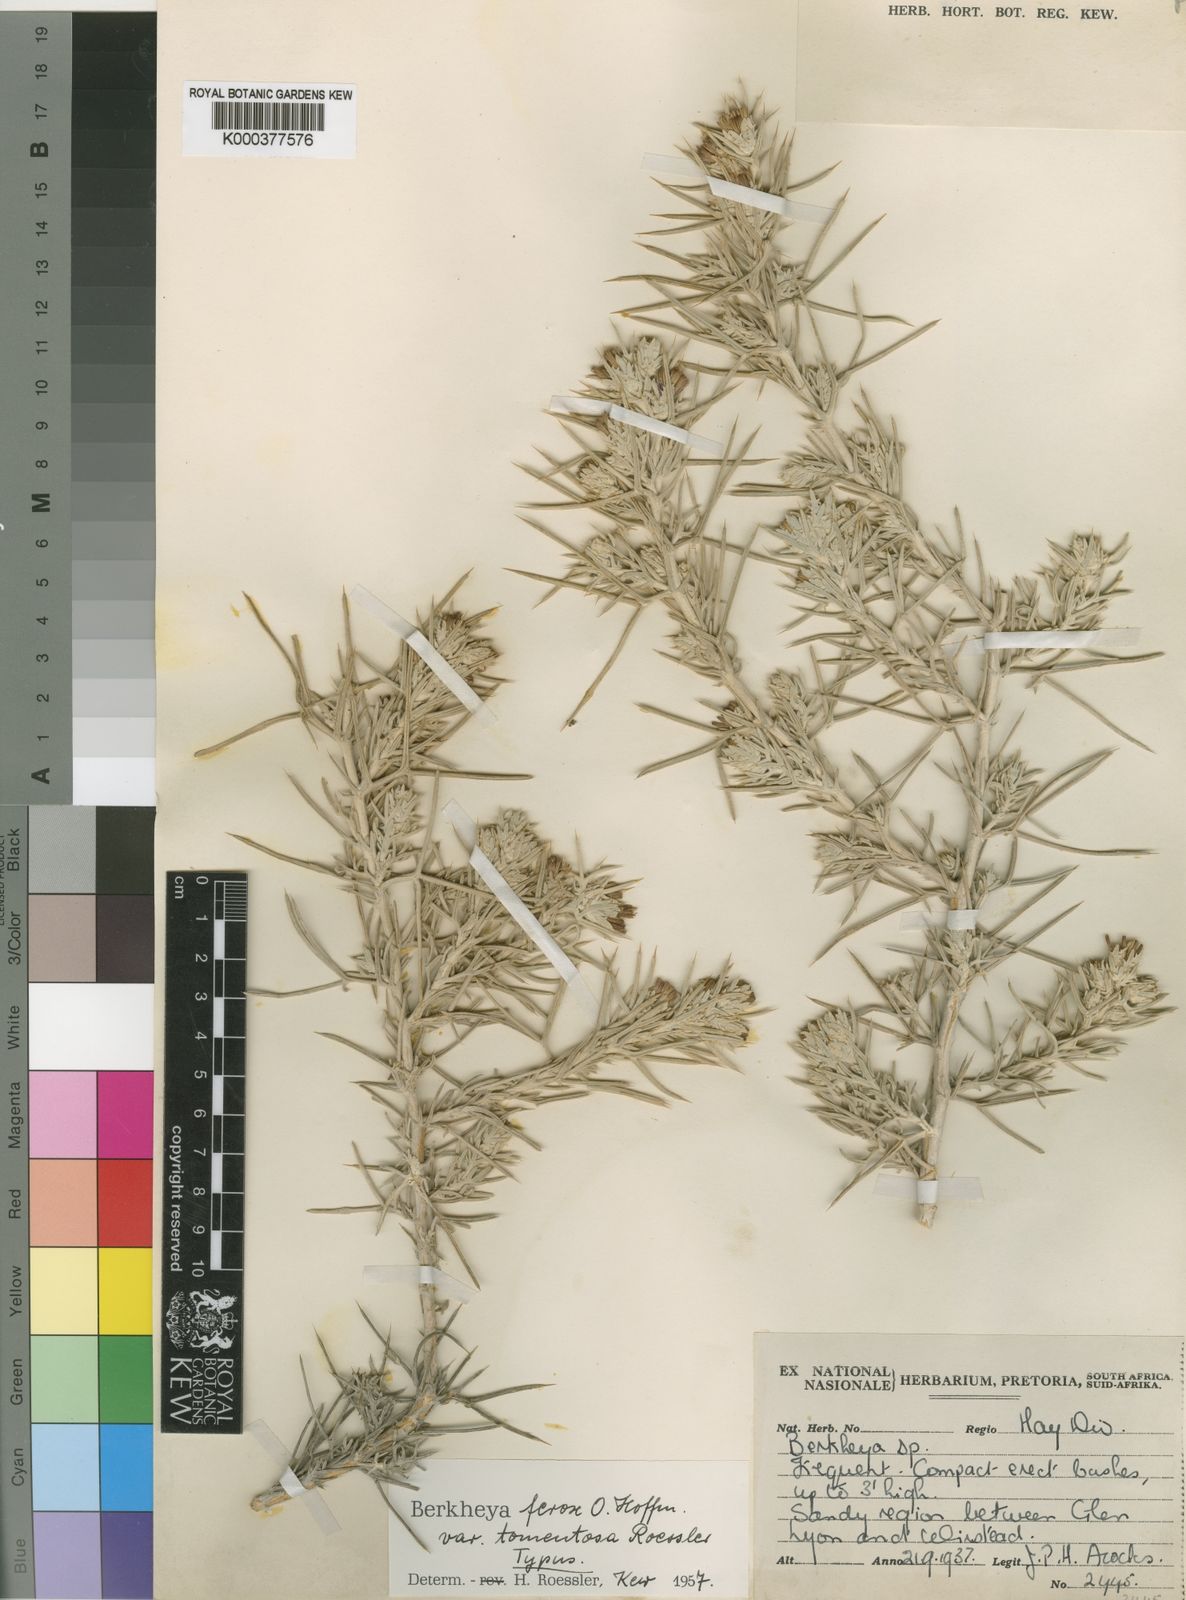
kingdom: Plantae
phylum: Tracheophyta
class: Magnoliopsida
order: Asterales
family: Asteraceae
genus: Berkheya
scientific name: Berkheya ferox
